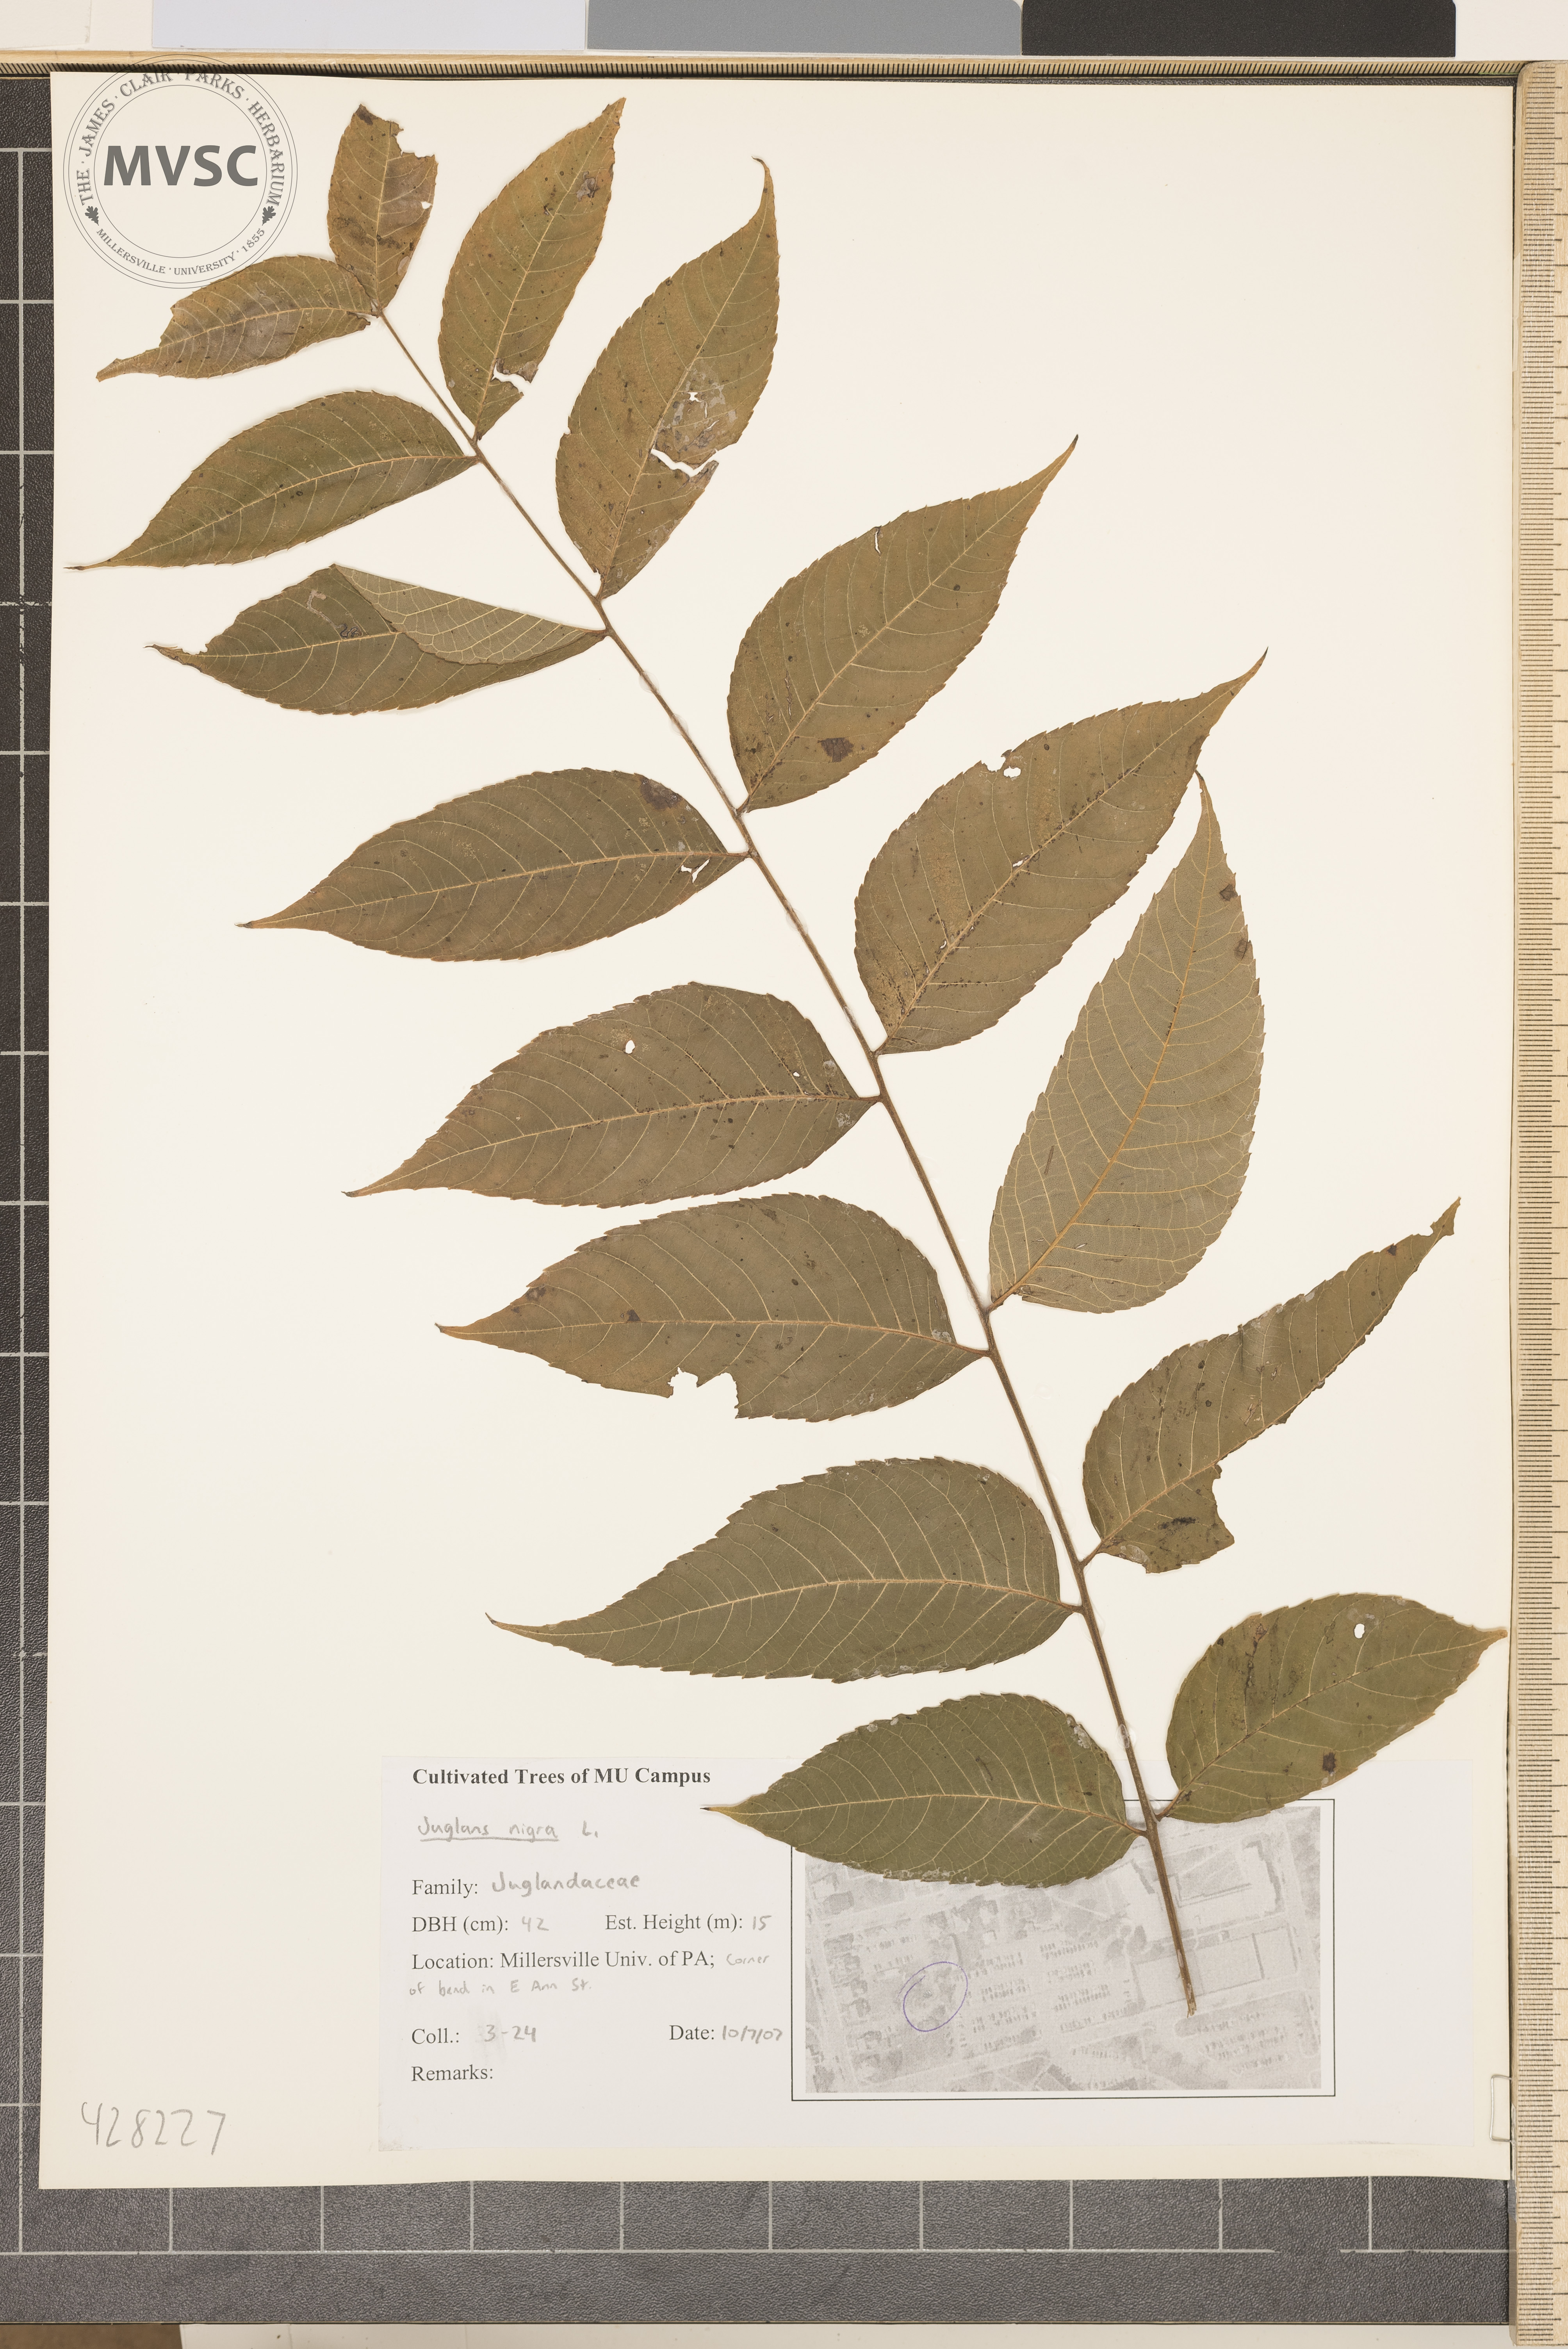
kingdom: Plantae
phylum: Tracheophyta
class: Magnoliopsida
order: Fagales
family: Juglandaceae
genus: Juglans
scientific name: Juglans nigra
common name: Black walnut
